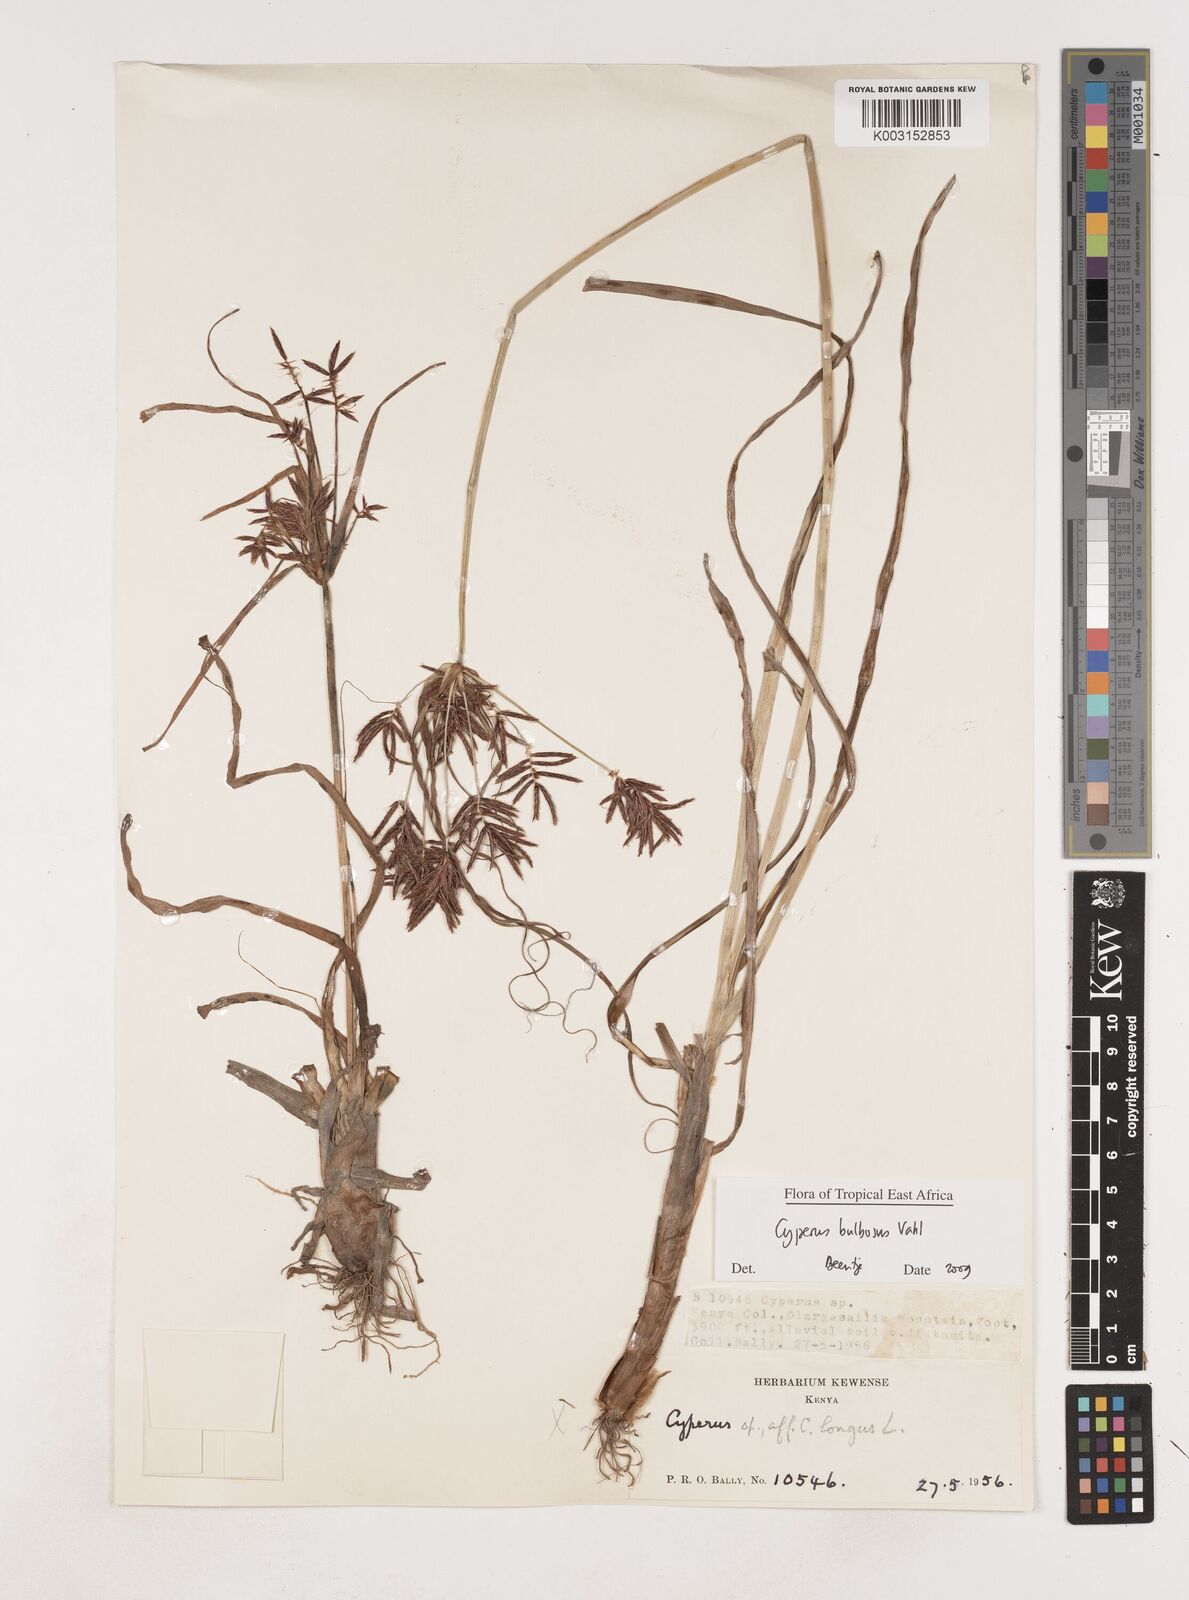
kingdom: Plantae
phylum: Tracheophyta
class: Liliopsida
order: Poales
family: Cyperaceae
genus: Cyperus
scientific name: Cyperus bulbosus
